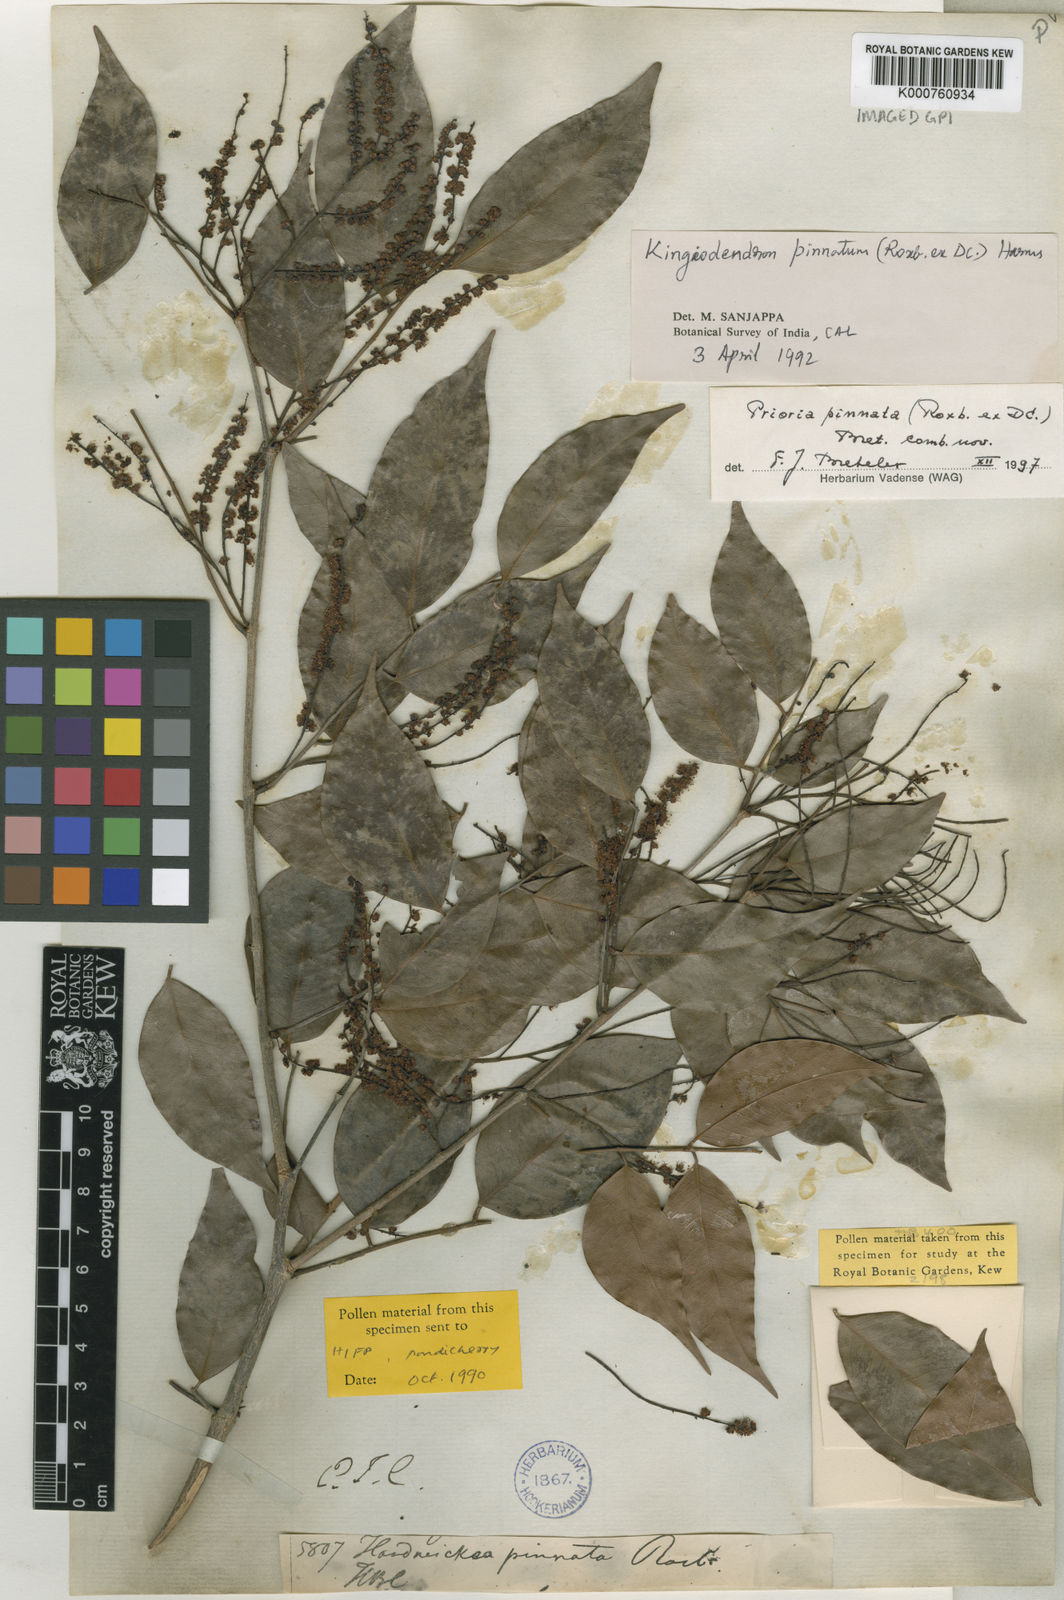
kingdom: Plantae
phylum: Tracheophyta
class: Magnoliopsida
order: Fabales
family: Fabaceae
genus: Prioria
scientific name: Prioria pinnata
